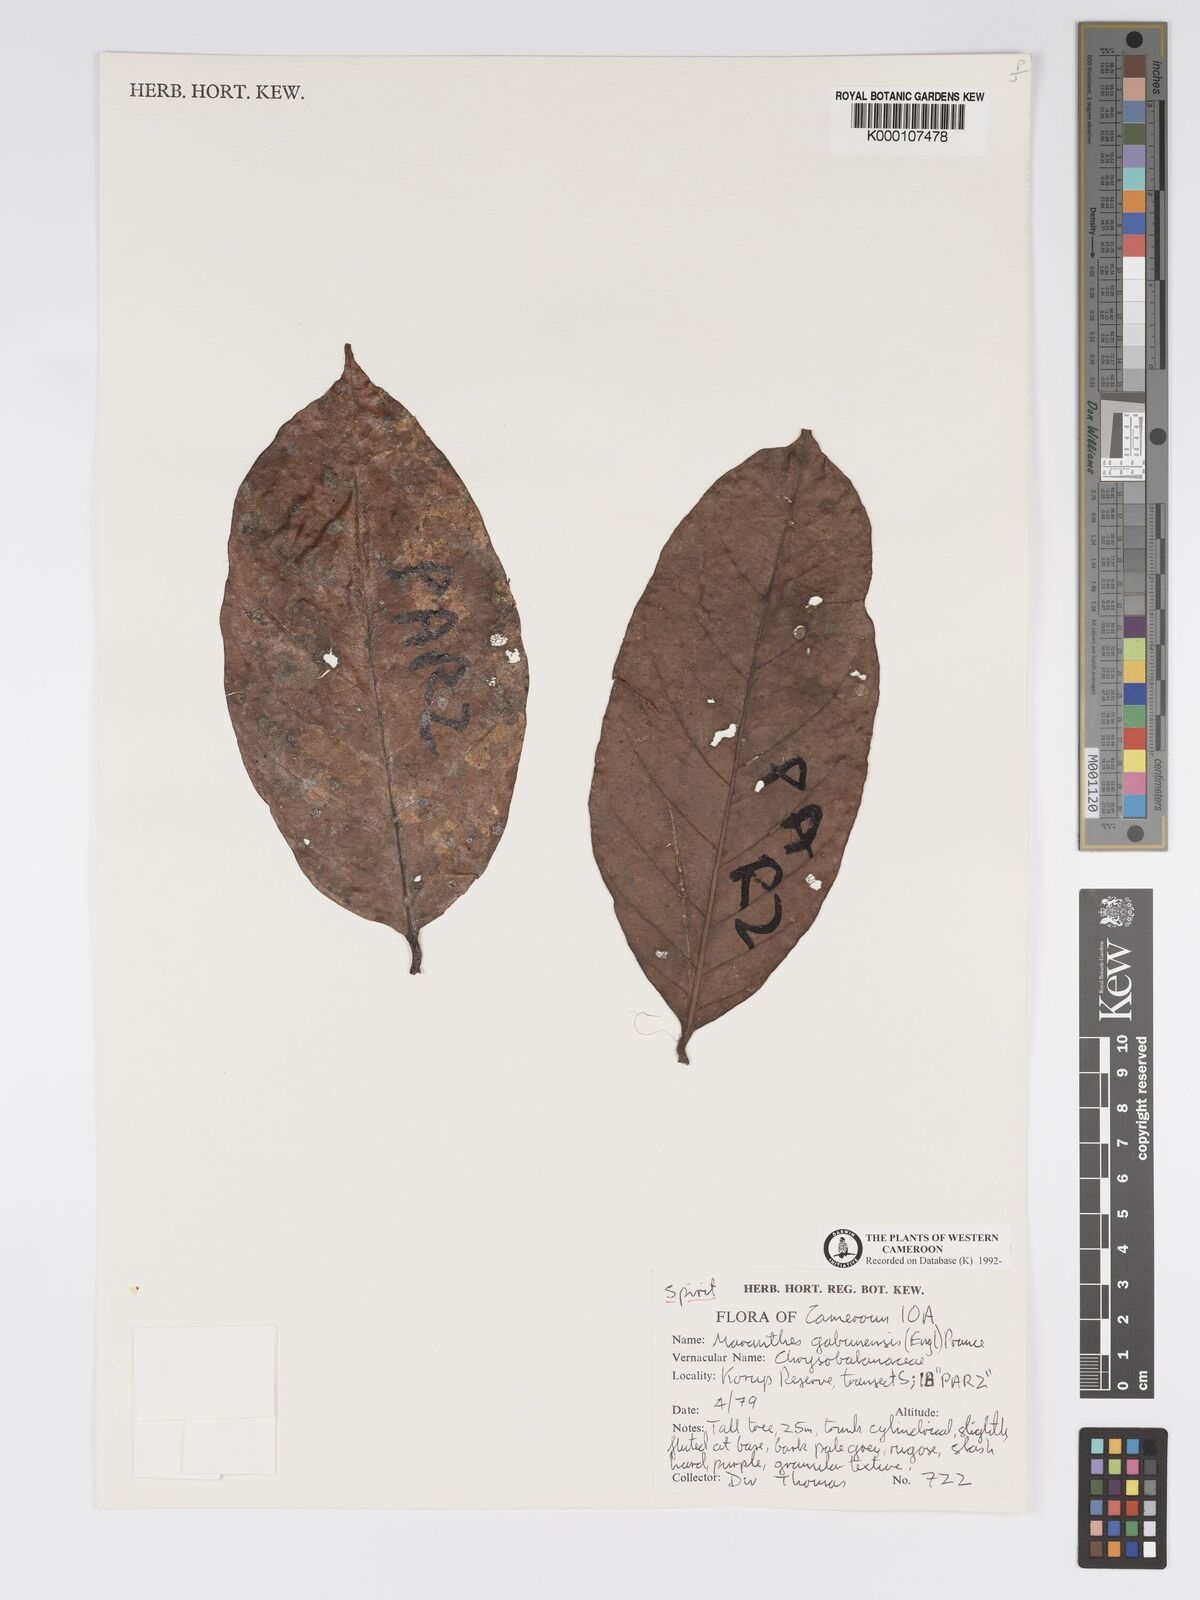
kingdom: Plantae
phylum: Tracheophyta
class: Magnoliopsida
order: Malpighiales
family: Chrysobalanaceae
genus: Maranthes
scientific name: Maranthes glabra
